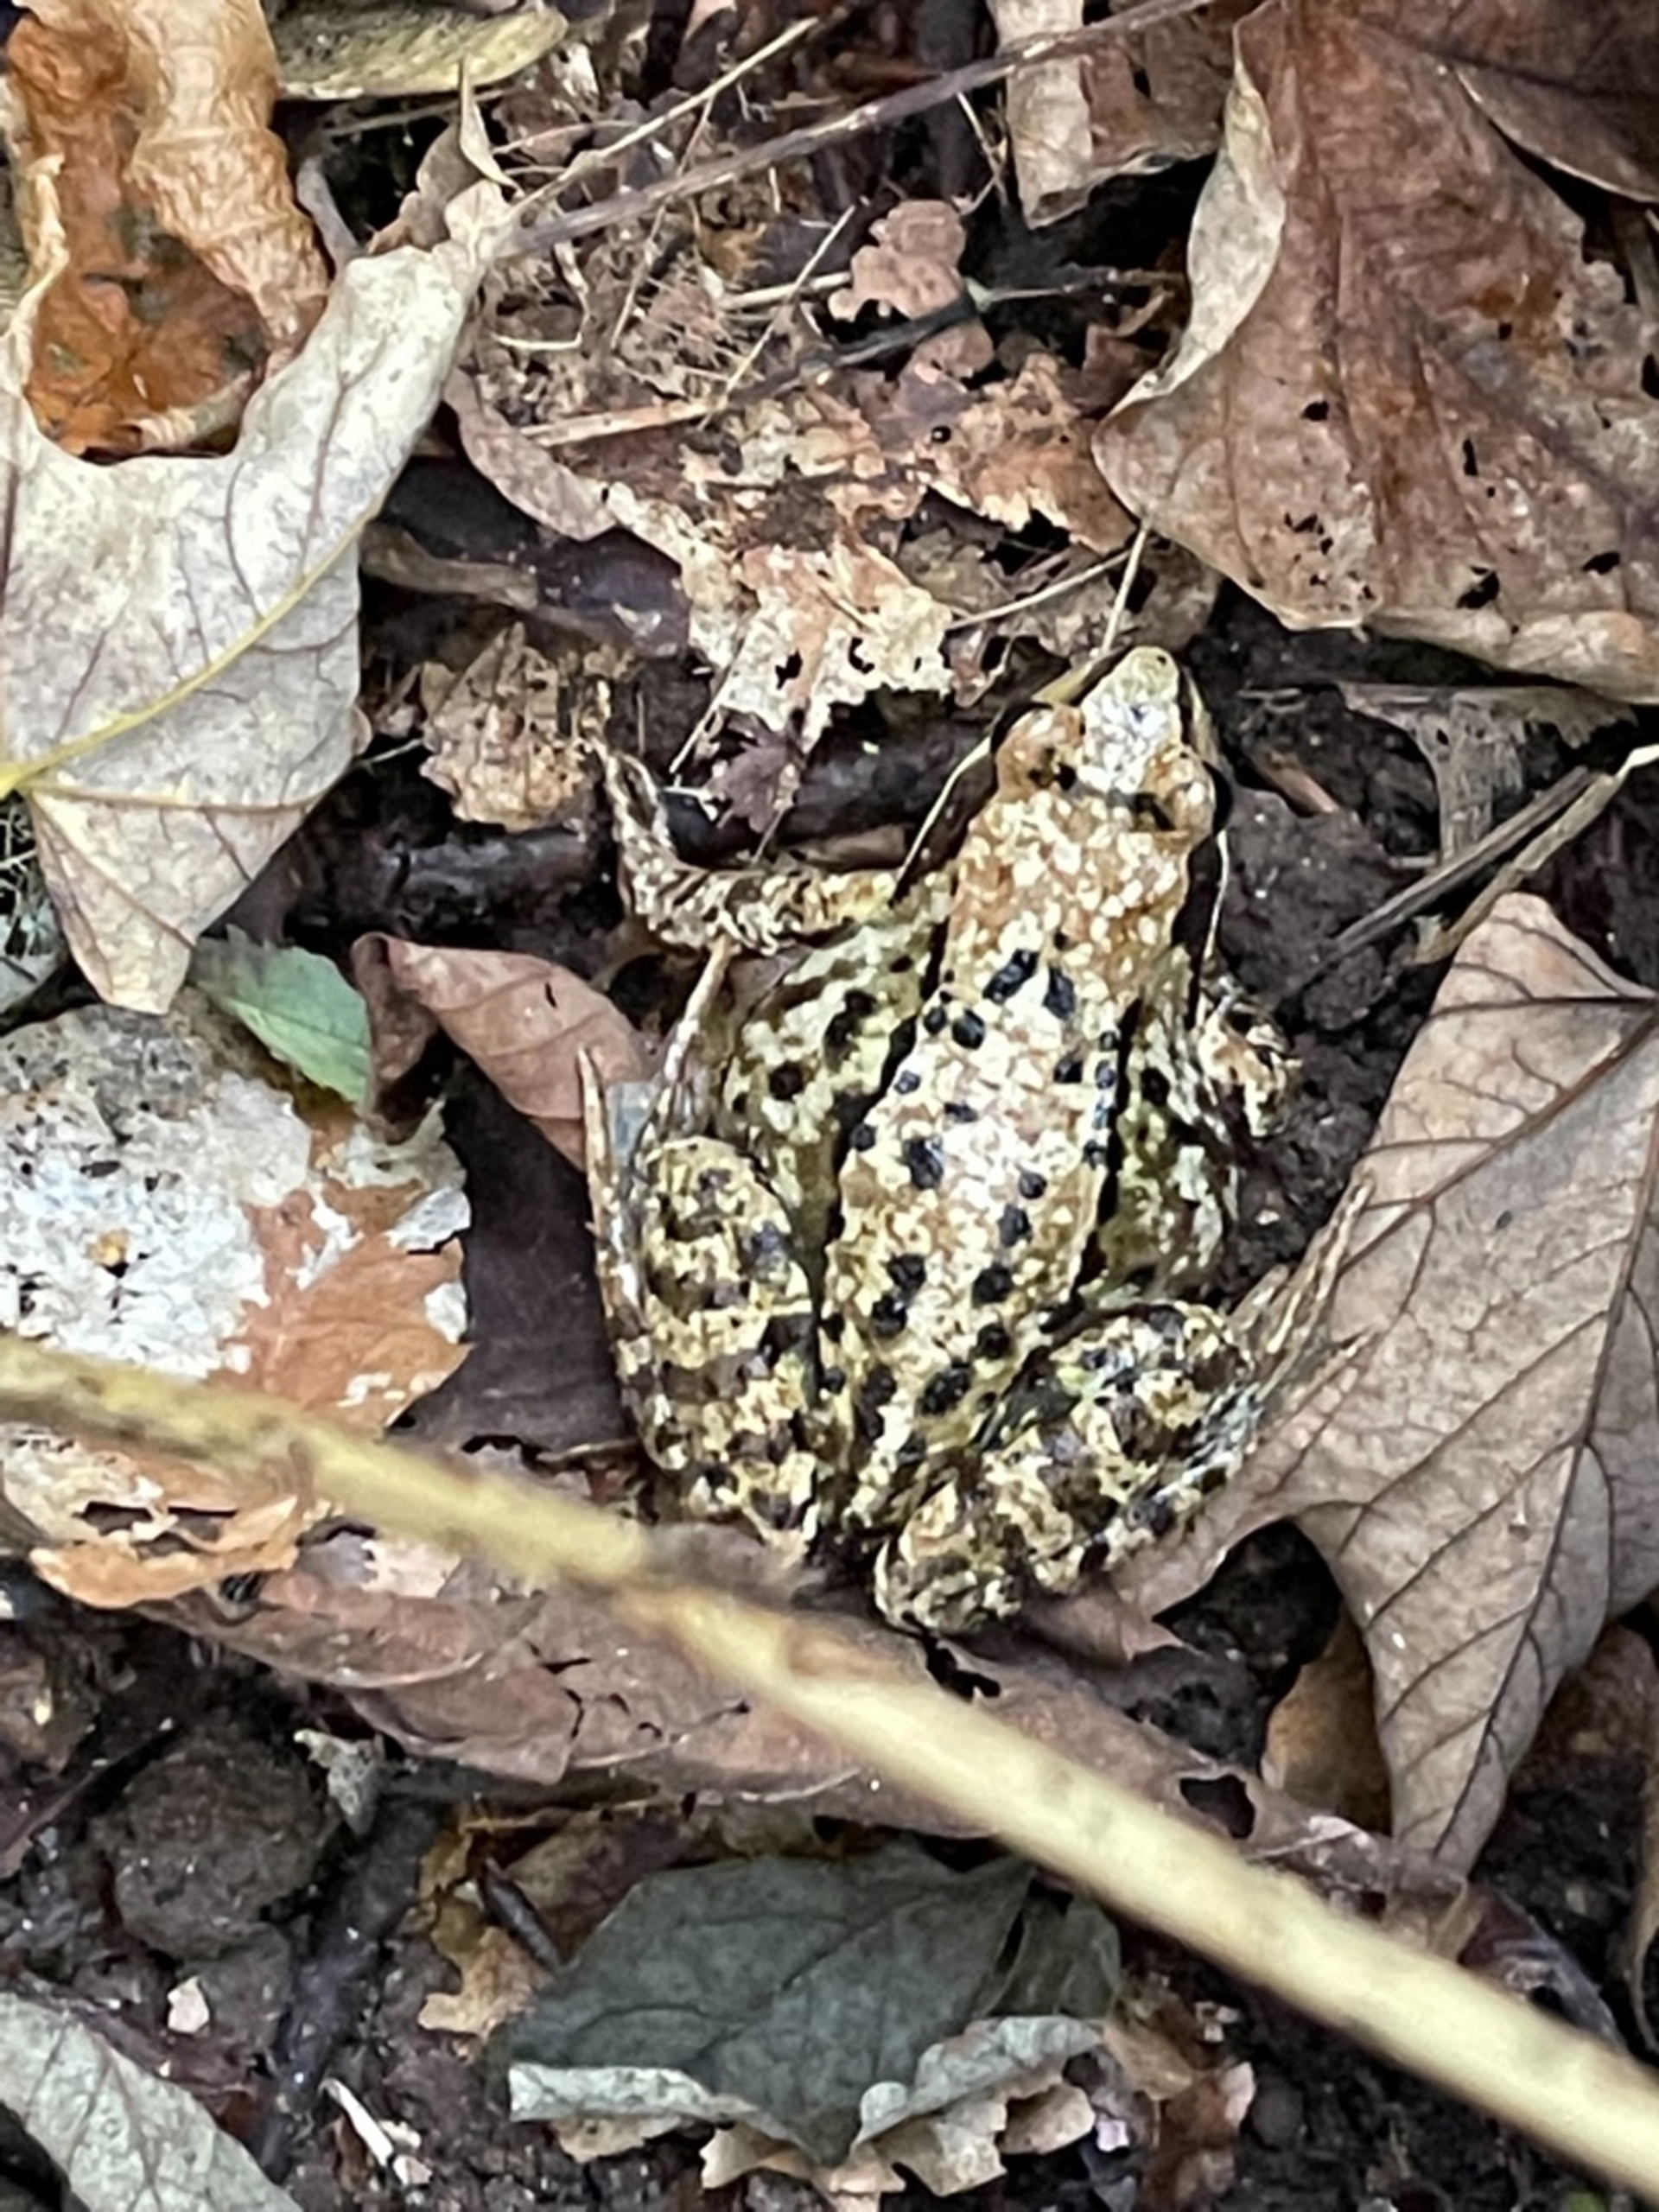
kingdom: Animalia
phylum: Chordata
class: Amphibia
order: Anura
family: Ranidae
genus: Rana
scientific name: Rana temporaria
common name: Butsnudet frø
